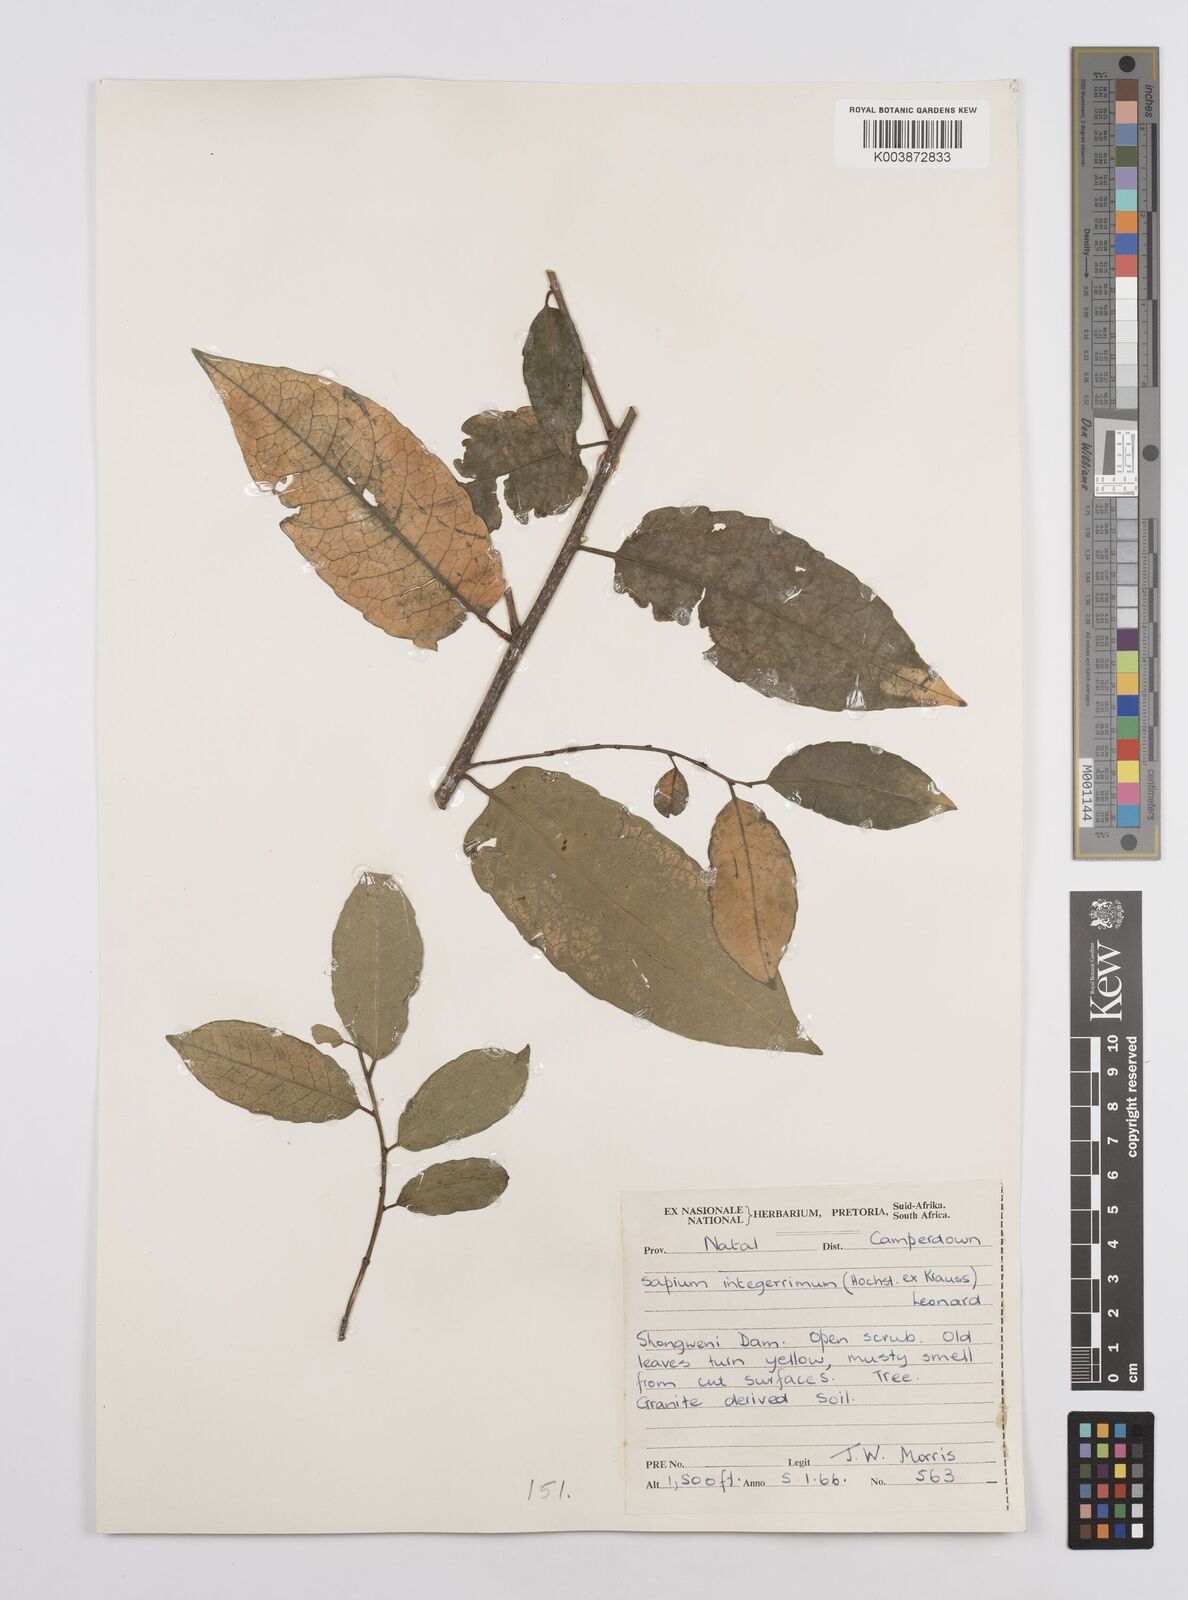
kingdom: Plantae
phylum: Tracheophyta
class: Magnoliopsida
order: Malpighiales
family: Euphorbiaceae
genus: Sclerocroton
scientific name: Sclerocroton integerrimus
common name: Duiker berry
